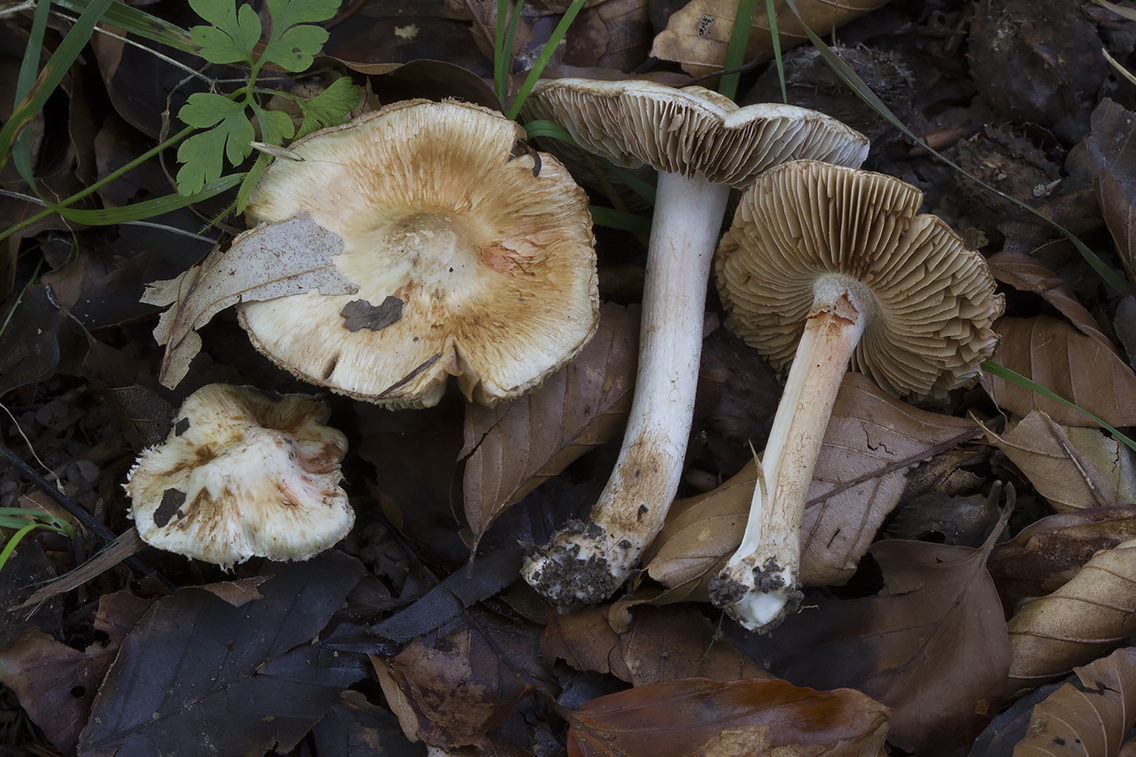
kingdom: Fungi
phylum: Basidiomycota
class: Agaricomycetes
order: Agaricales
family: Inocybaceae
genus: Inocybe
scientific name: Inocybe fraudans
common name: pæreduftende trævlhat
